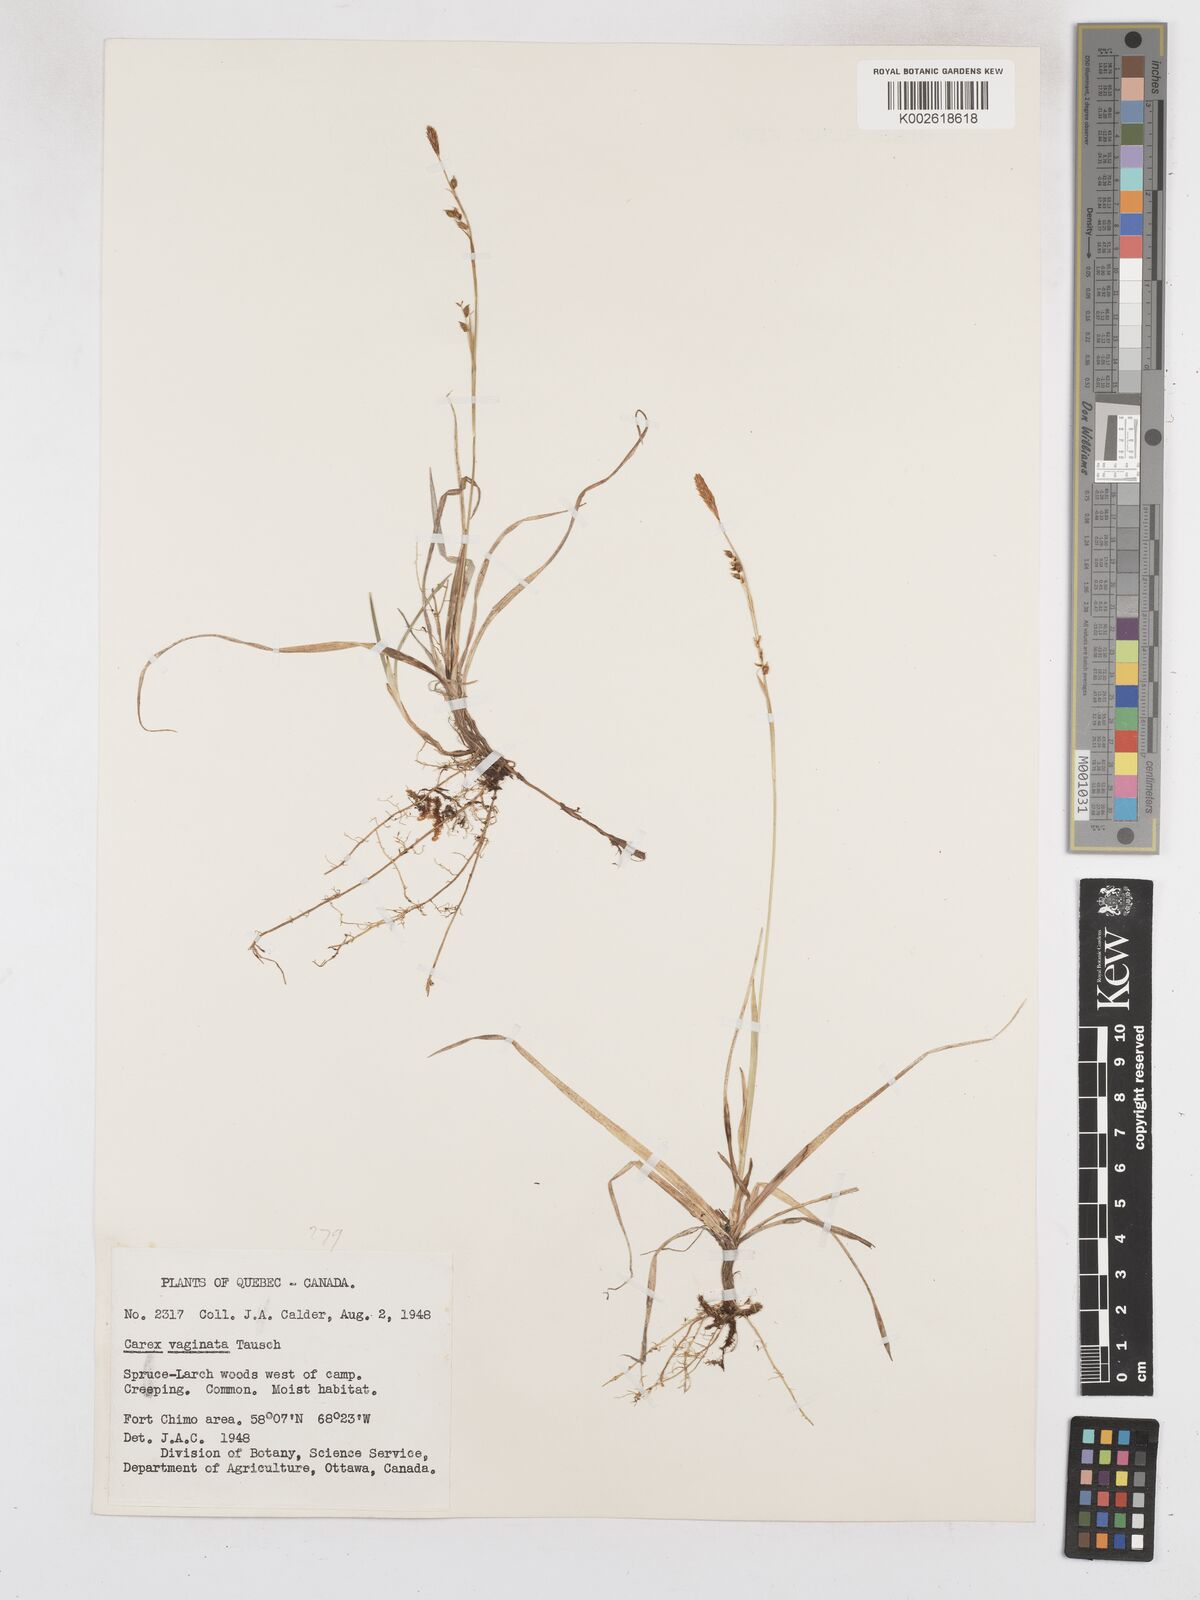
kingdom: Plantae
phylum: Tracheophyta
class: Liliopsida
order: Poales
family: Cyperaceae
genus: Carex
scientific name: Carex vaginata
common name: Sheathed sedge
